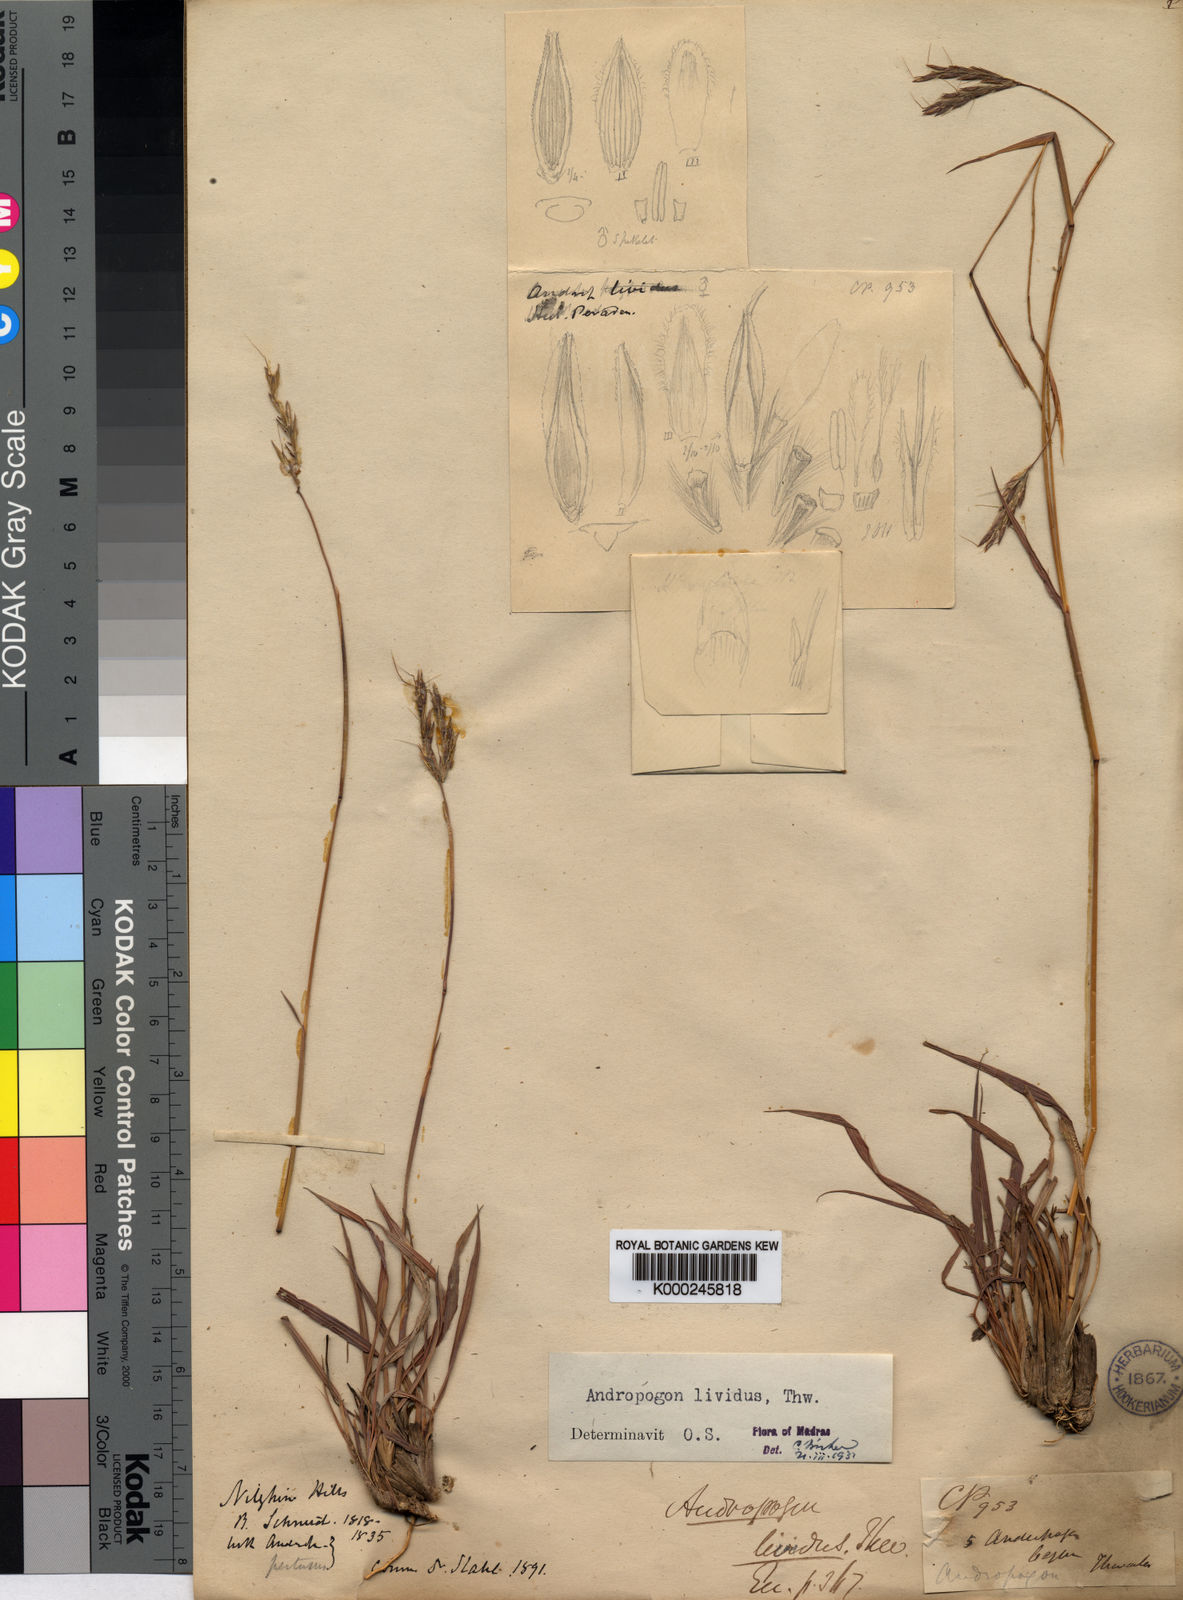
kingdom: Plantae
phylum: Tracheophyta
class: Liliopsida
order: Poales
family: Poaceae
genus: Andropogon
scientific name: Andropogon lividus
